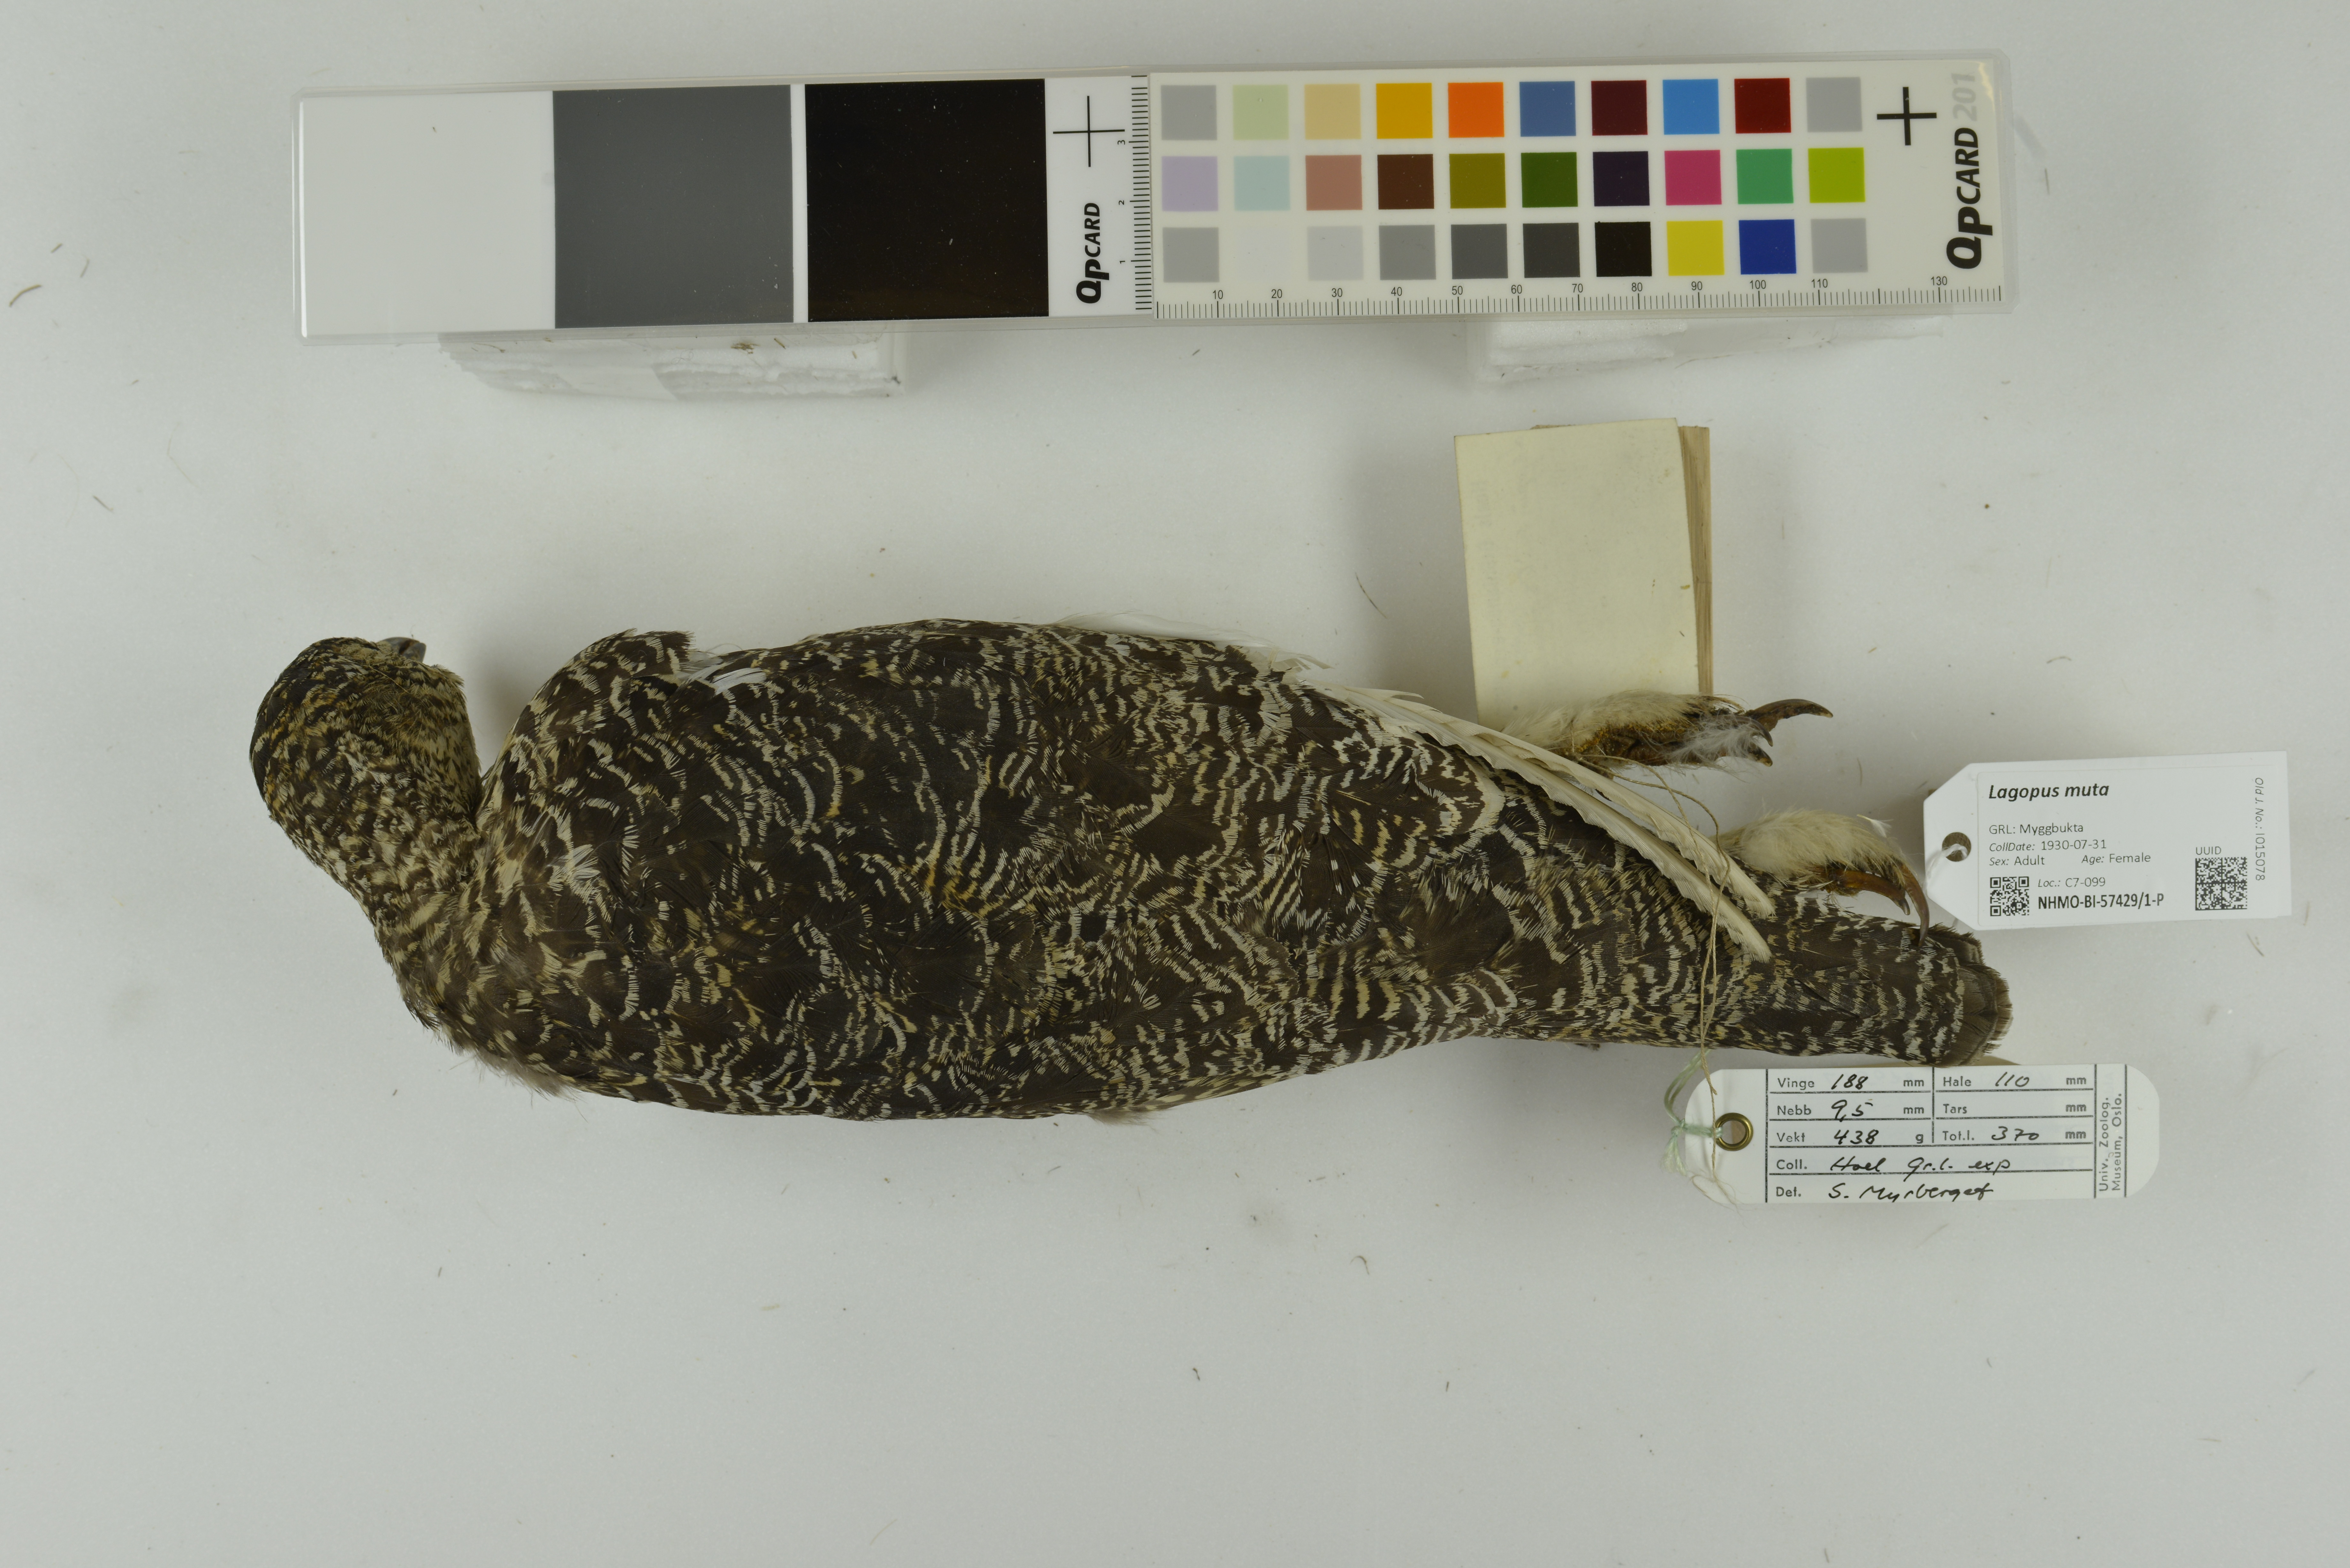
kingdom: Animalia
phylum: Chordata
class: Aves
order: Galliformes
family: Phasianidae
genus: Lagopus
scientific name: Lagopus muta
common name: Rock ptarmigan
